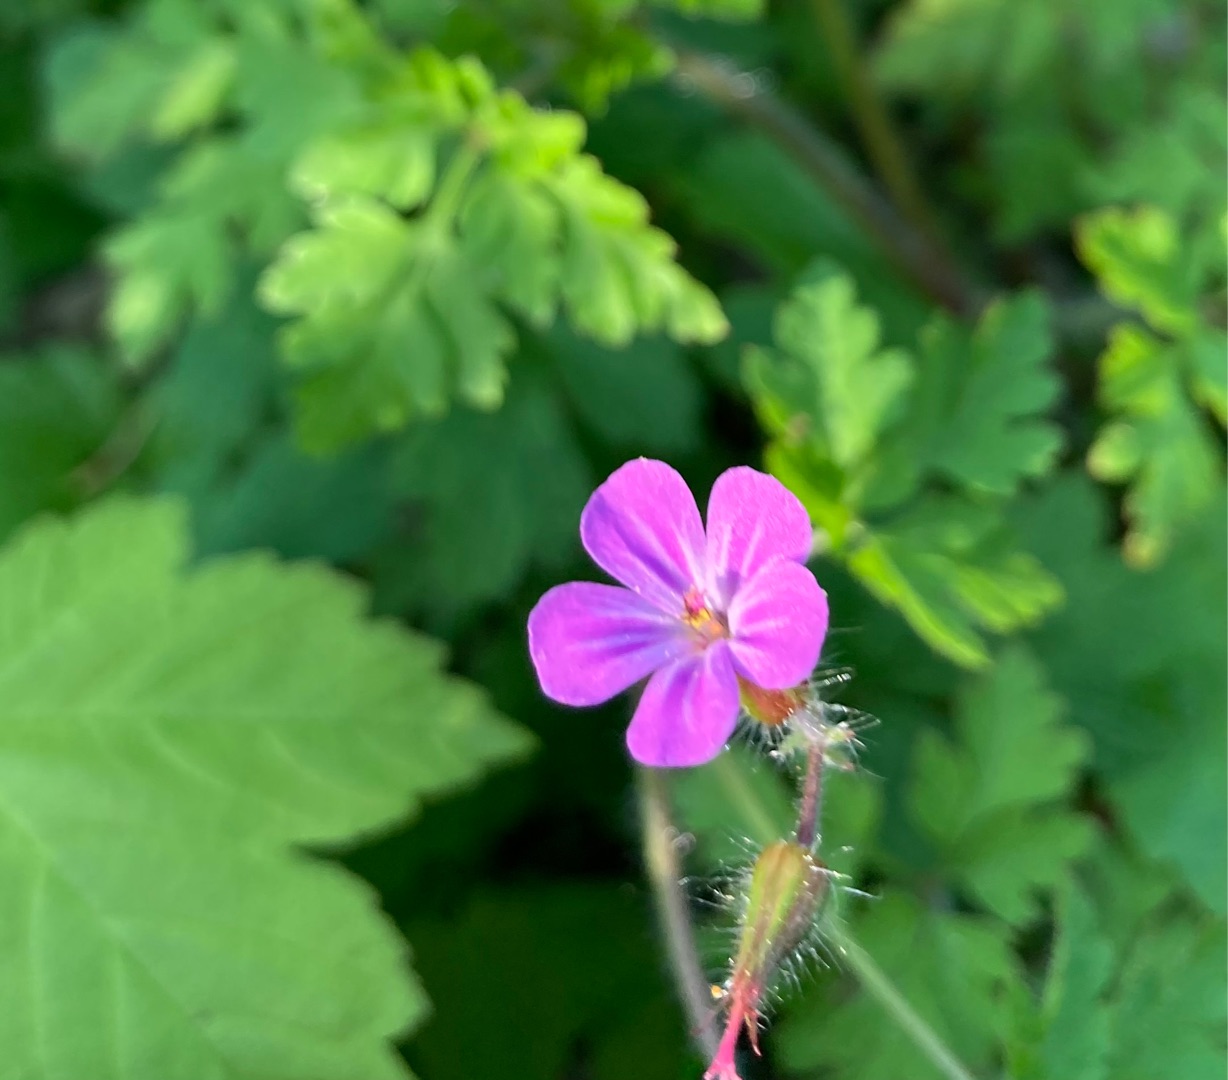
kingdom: Plantae
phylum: Tracheophyta
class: Magnoliopsida
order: Geraniales
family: Geraniaceae
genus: Geranium
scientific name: Geranium robertianum
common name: Stinkende storkenæb
